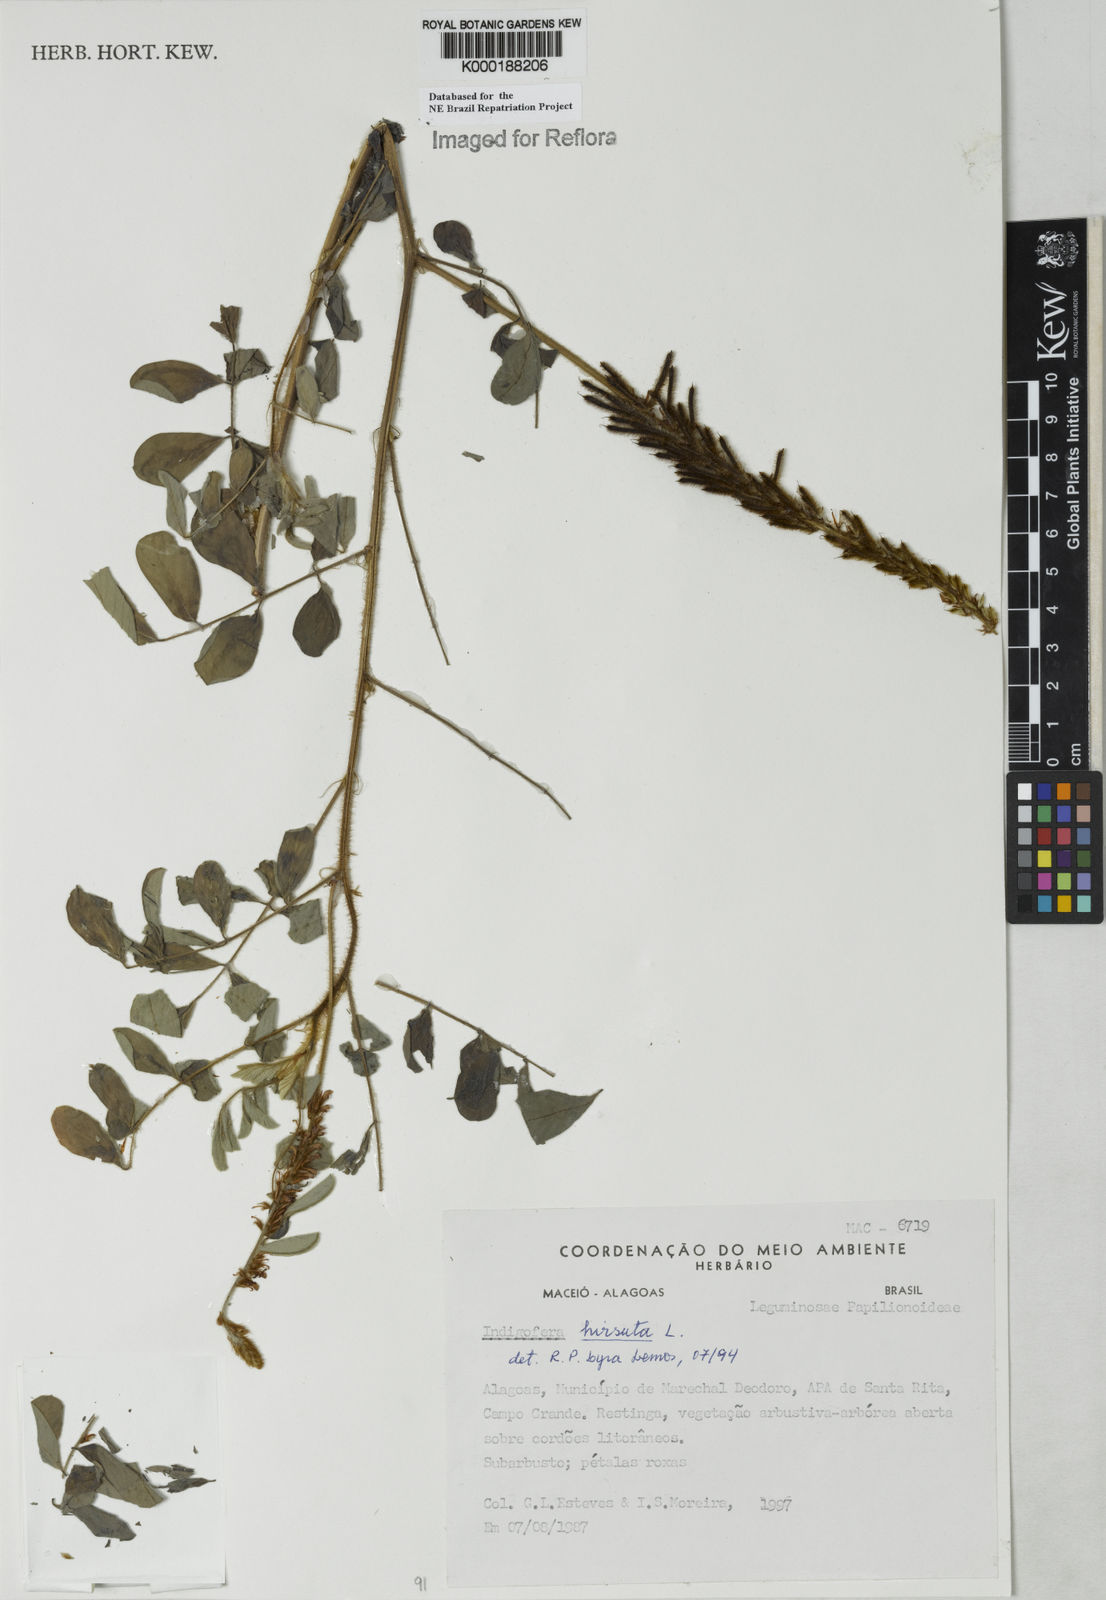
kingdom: Plantae
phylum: Tracheophyta
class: Magnoliopsida
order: Fabales
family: Fabaceae
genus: Indigofera
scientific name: Indigofera hirsuta
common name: Hairy indigo
